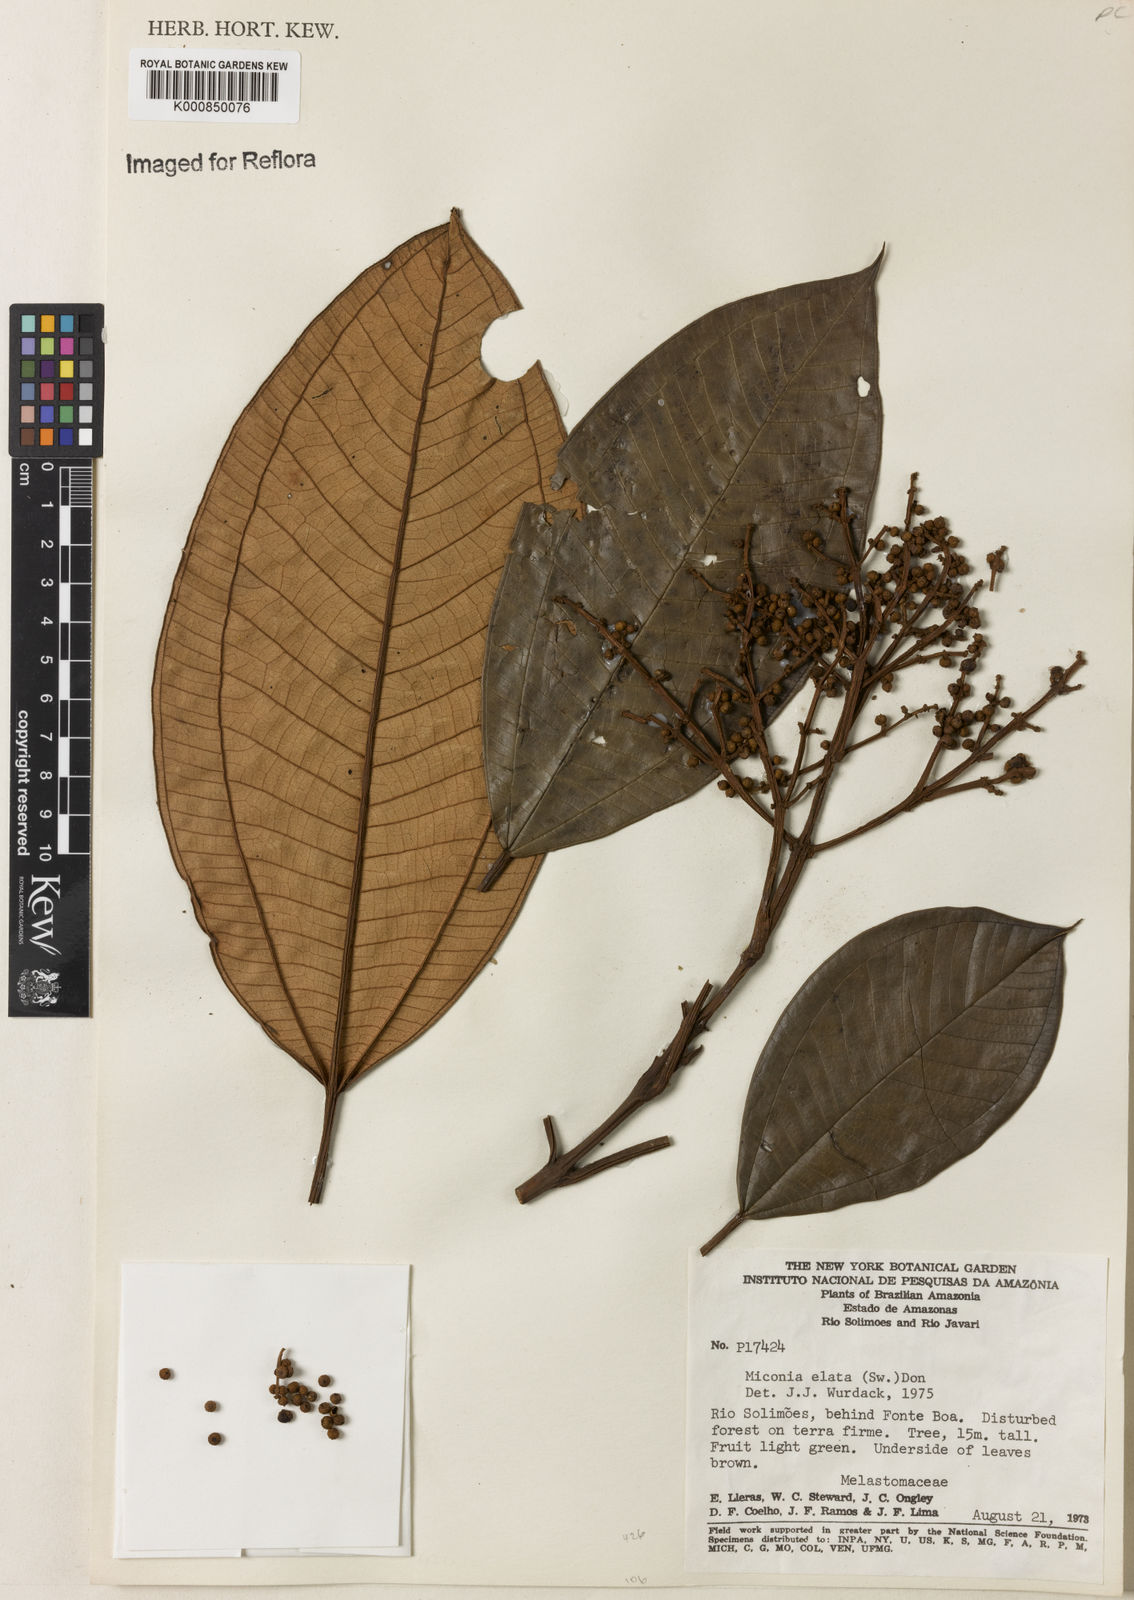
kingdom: Plantae
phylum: Tracheophyta
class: Magnoliopsida
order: Myrtales
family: Melastomataceae
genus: Miconia
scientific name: Miconia elata
